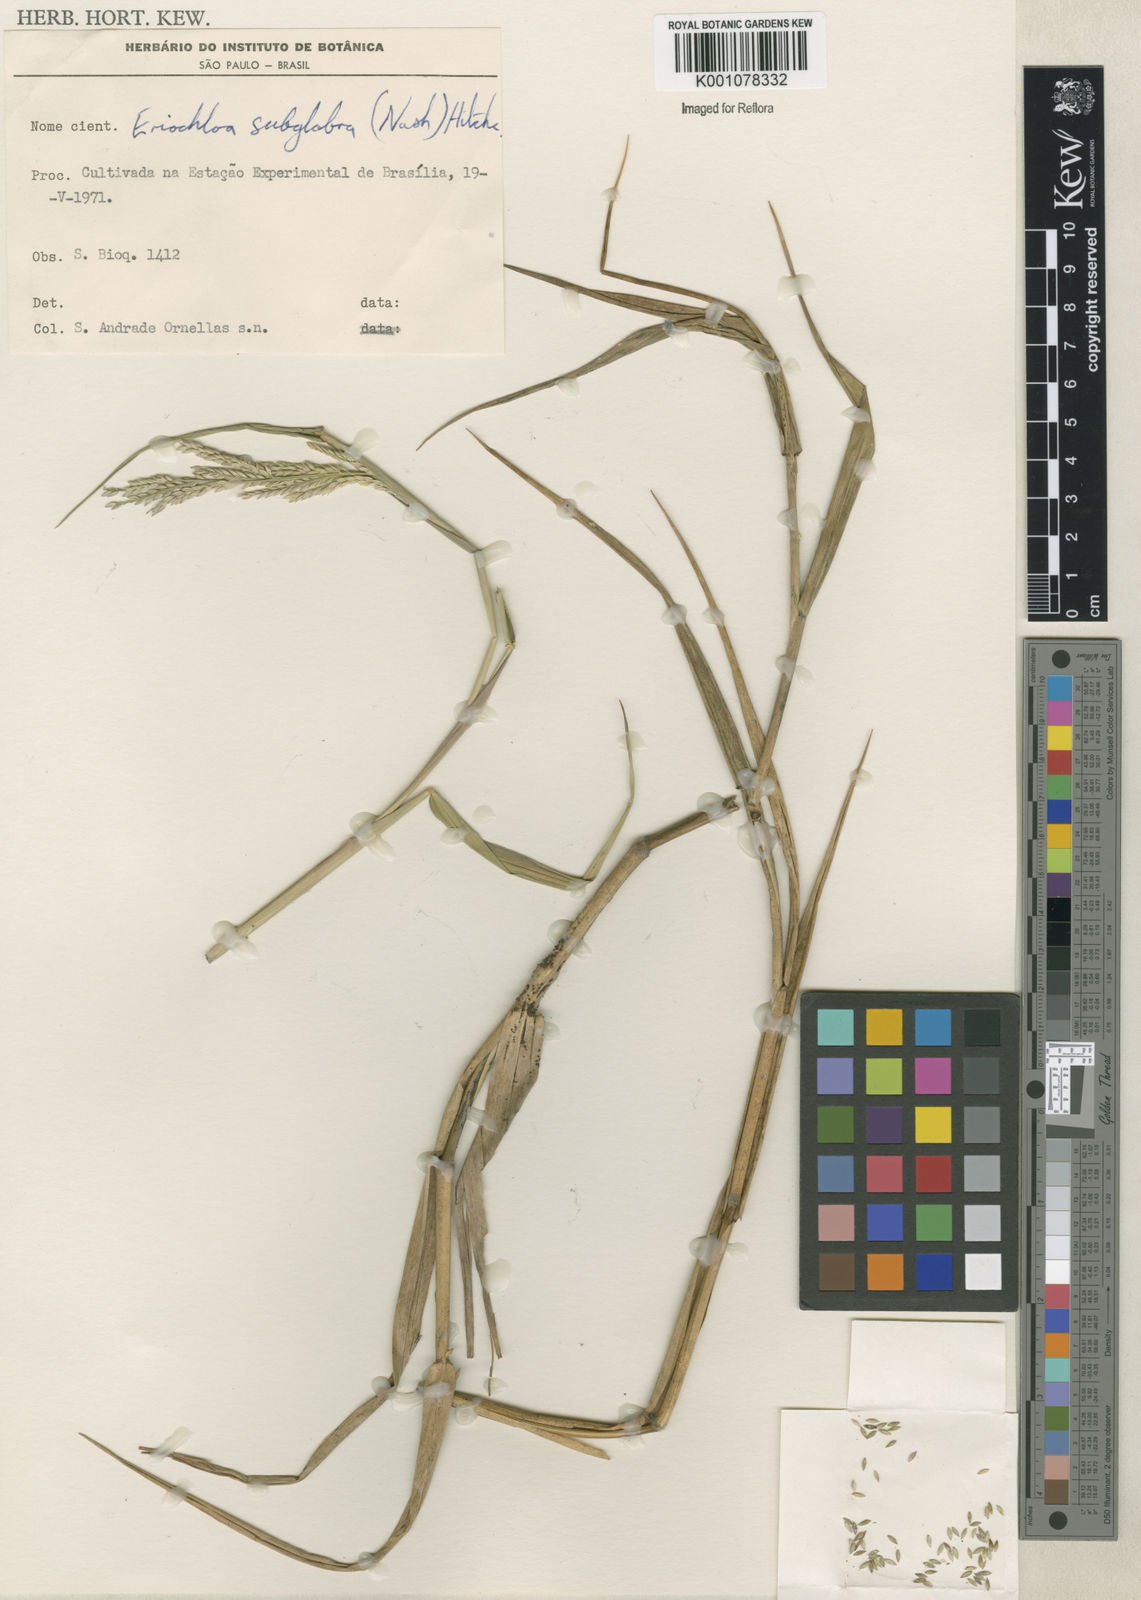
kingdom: Plantae
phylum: Tracheophyta
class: Liliopsida
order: Poales
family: Poaceae
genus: Urochloa
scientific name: Urochloa polystachya
